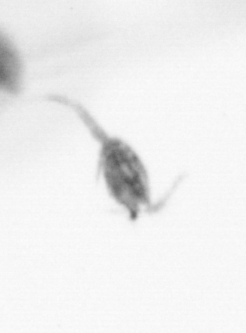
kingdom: Animalia
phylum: Arthropoda
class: Copepoda
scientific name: Copepoda
